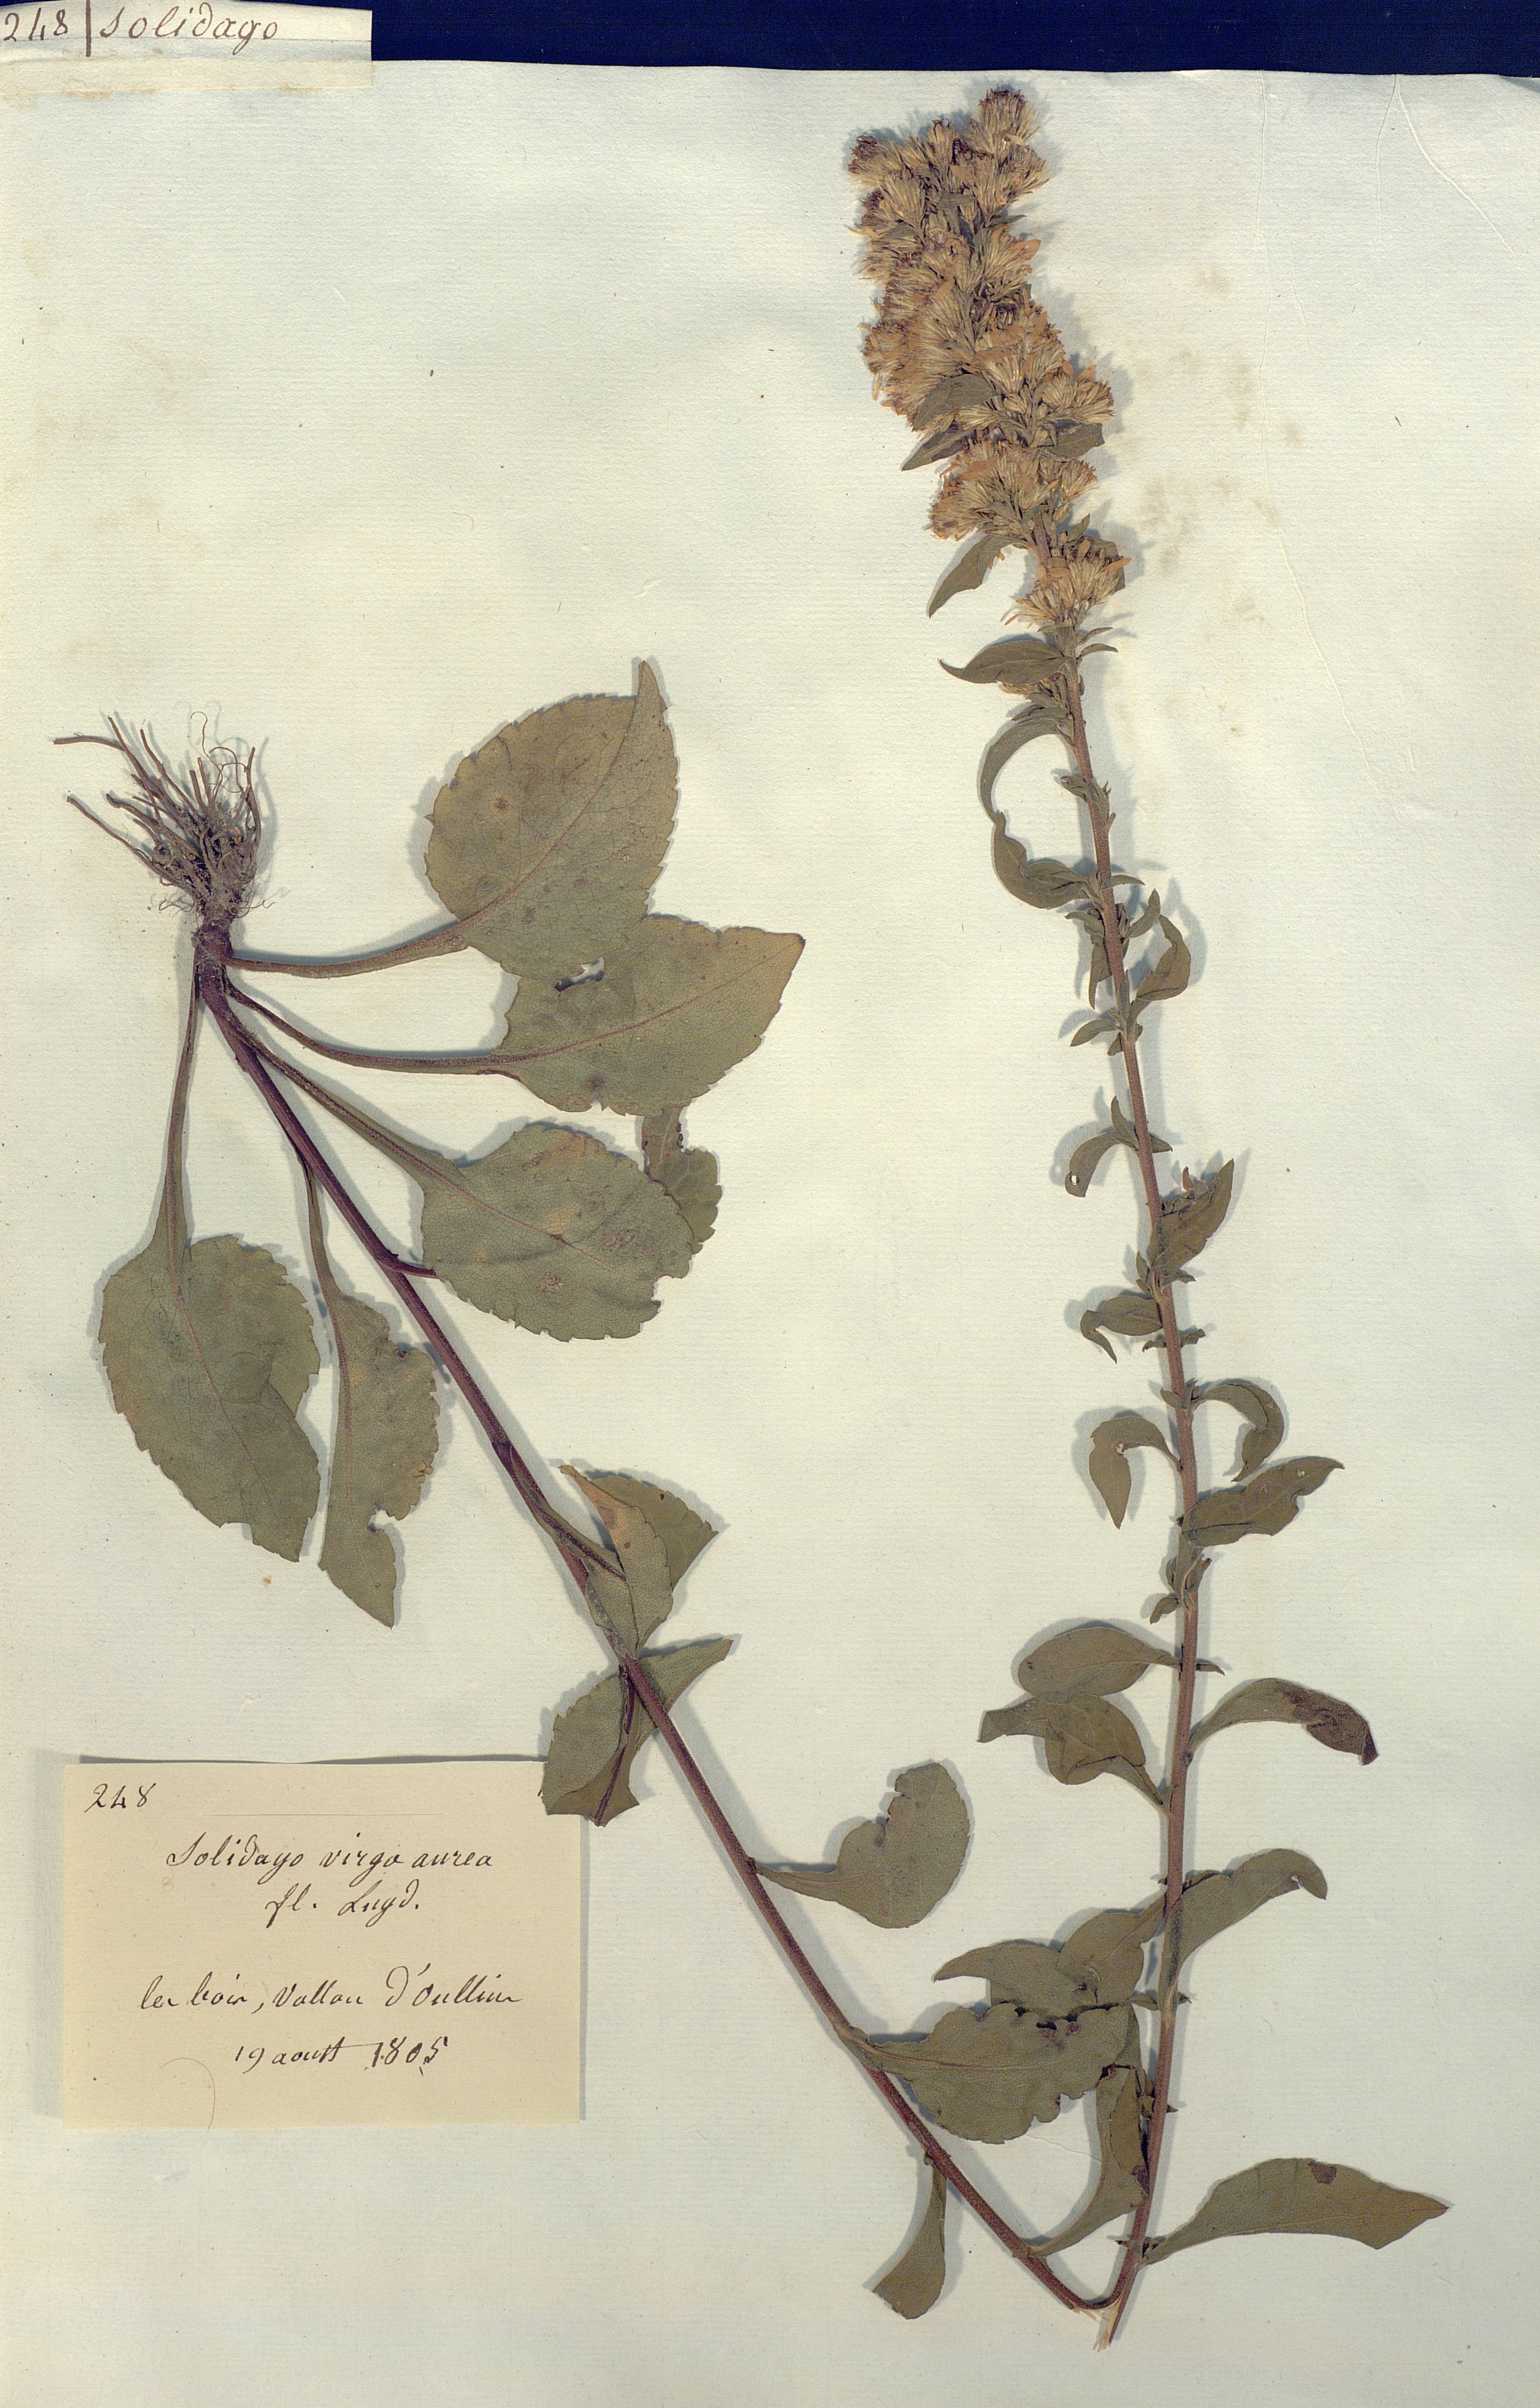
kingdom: Plantae
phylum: Tracheophyta
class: Magnoliopsida
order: Asterales
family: Asteraceae
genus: Solidago
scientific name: Solidago virgaurea
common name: Goldenrod
